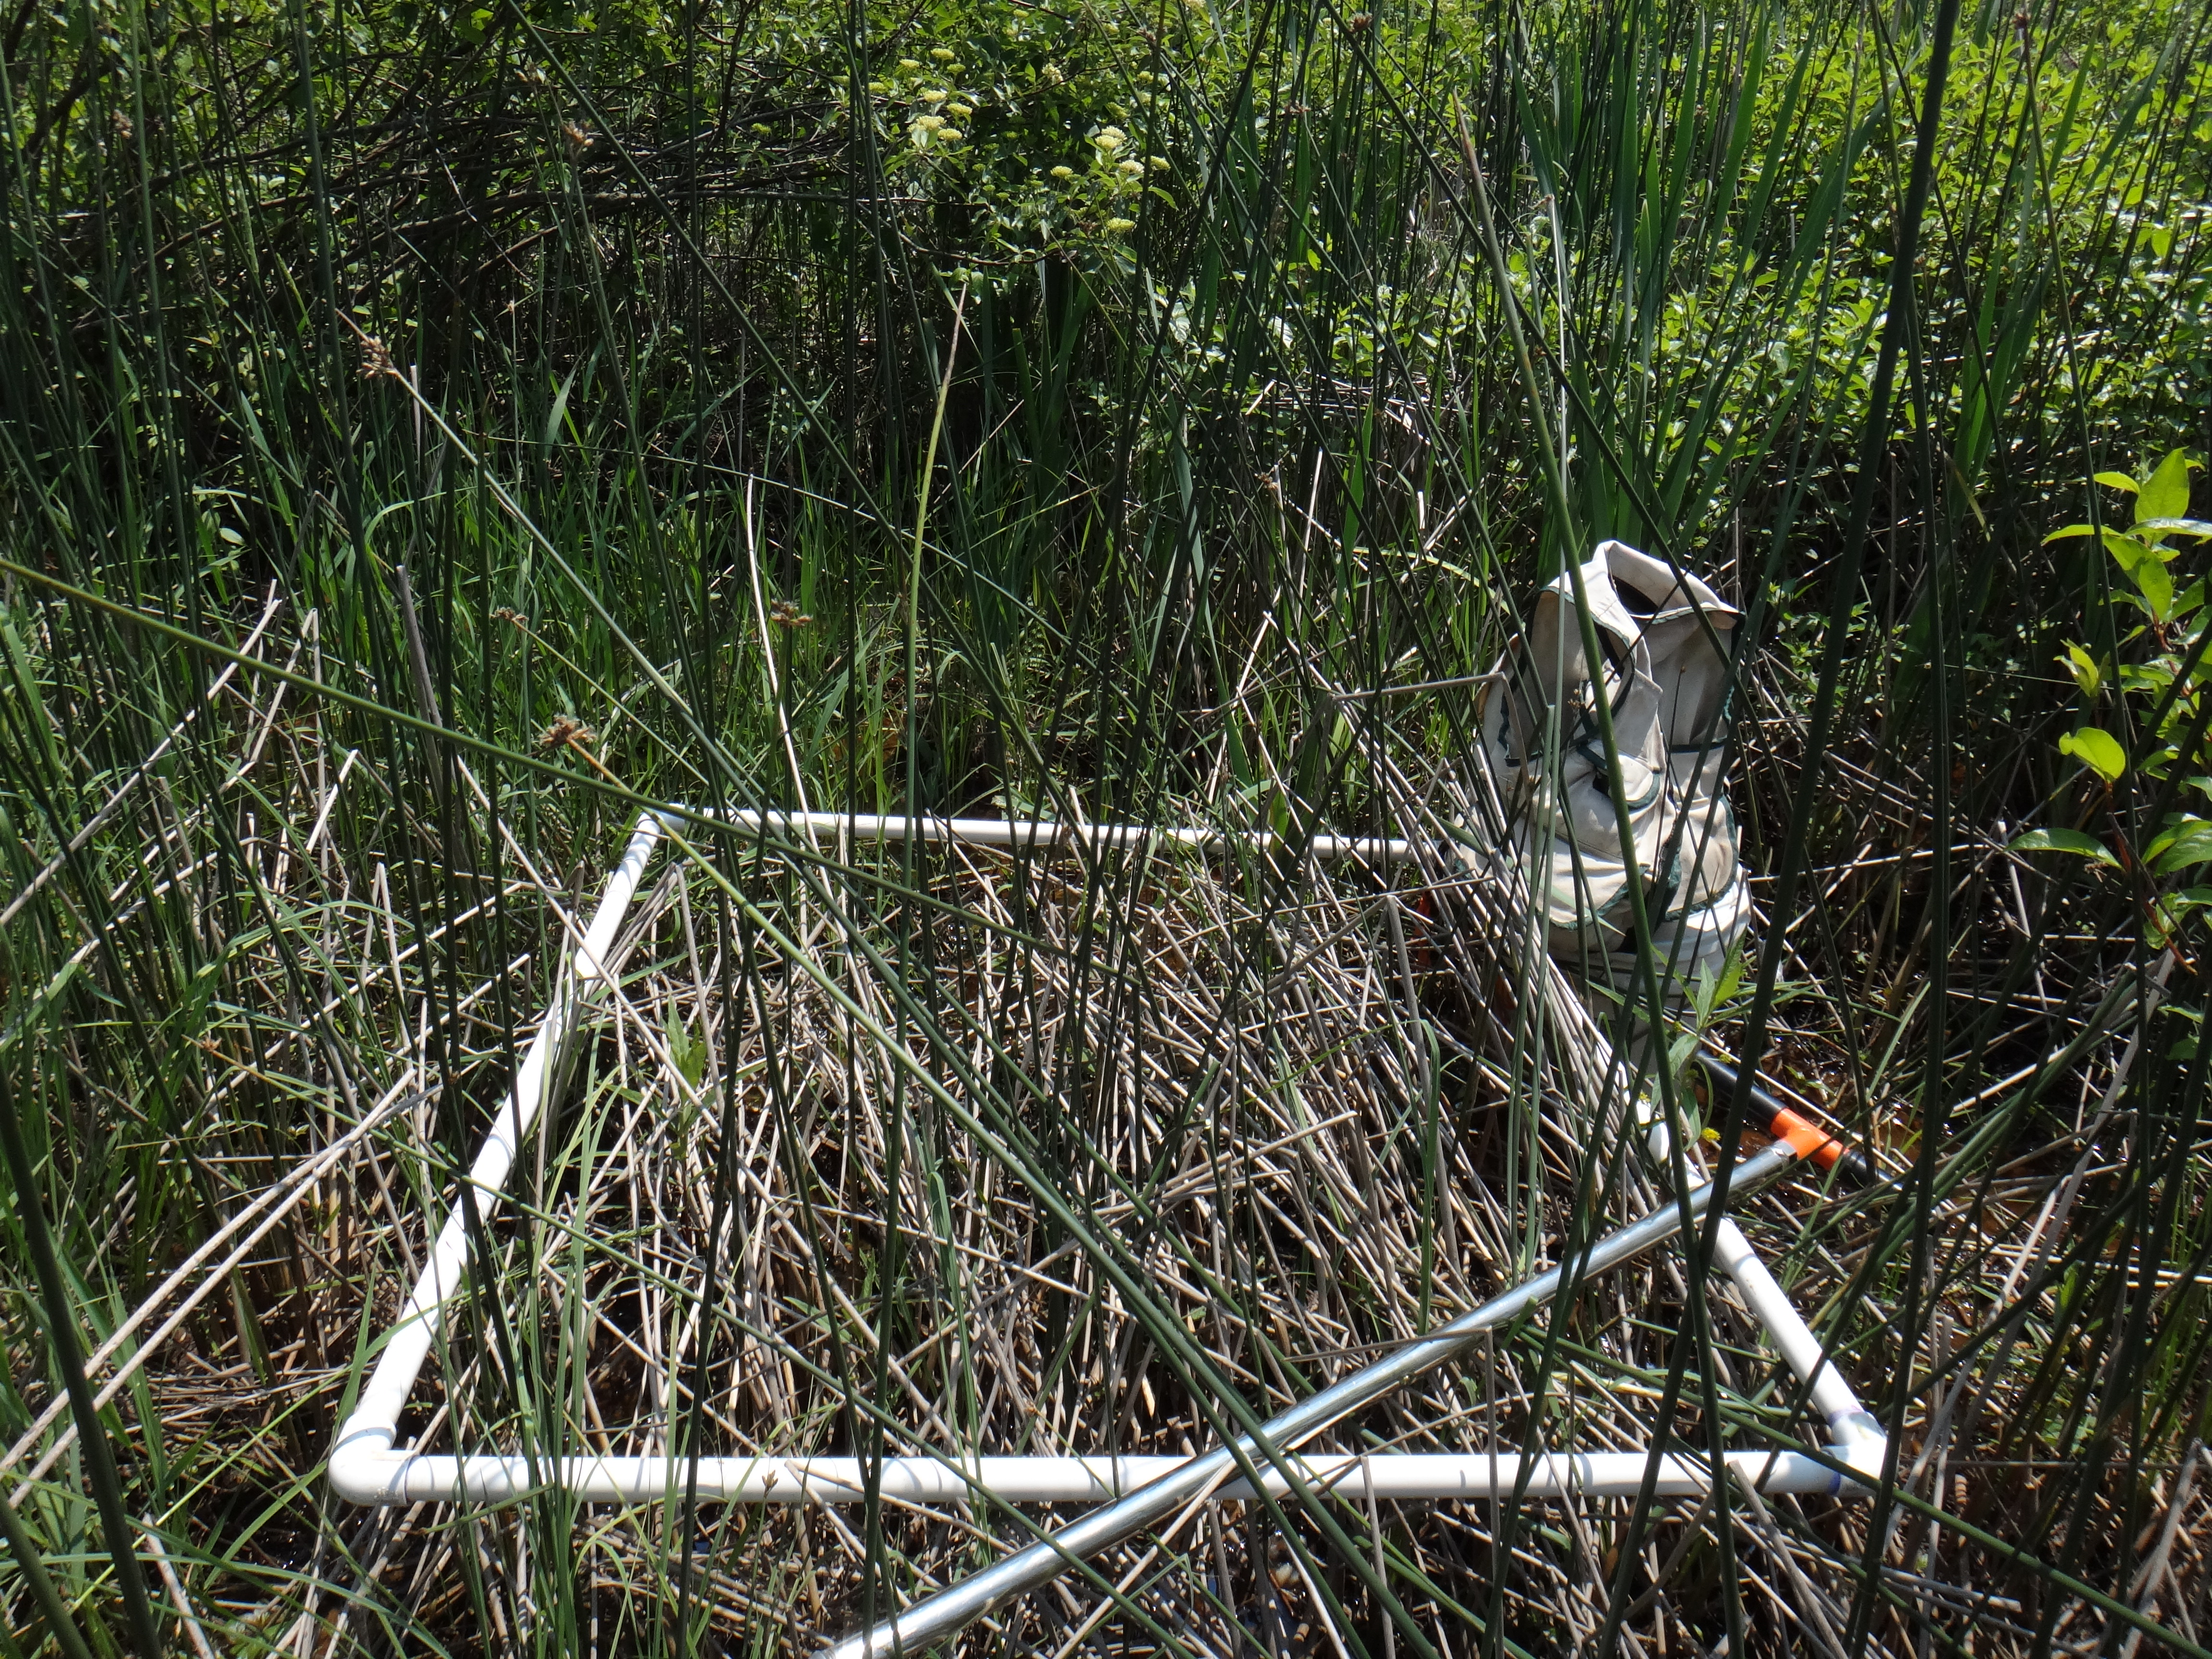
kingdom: Plantae
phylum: Tracheophyta
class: Magnoliopsida
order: Cornales
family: Cornaceae
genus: Cornus
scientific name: Cornus amomum
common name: Silky dogwood
